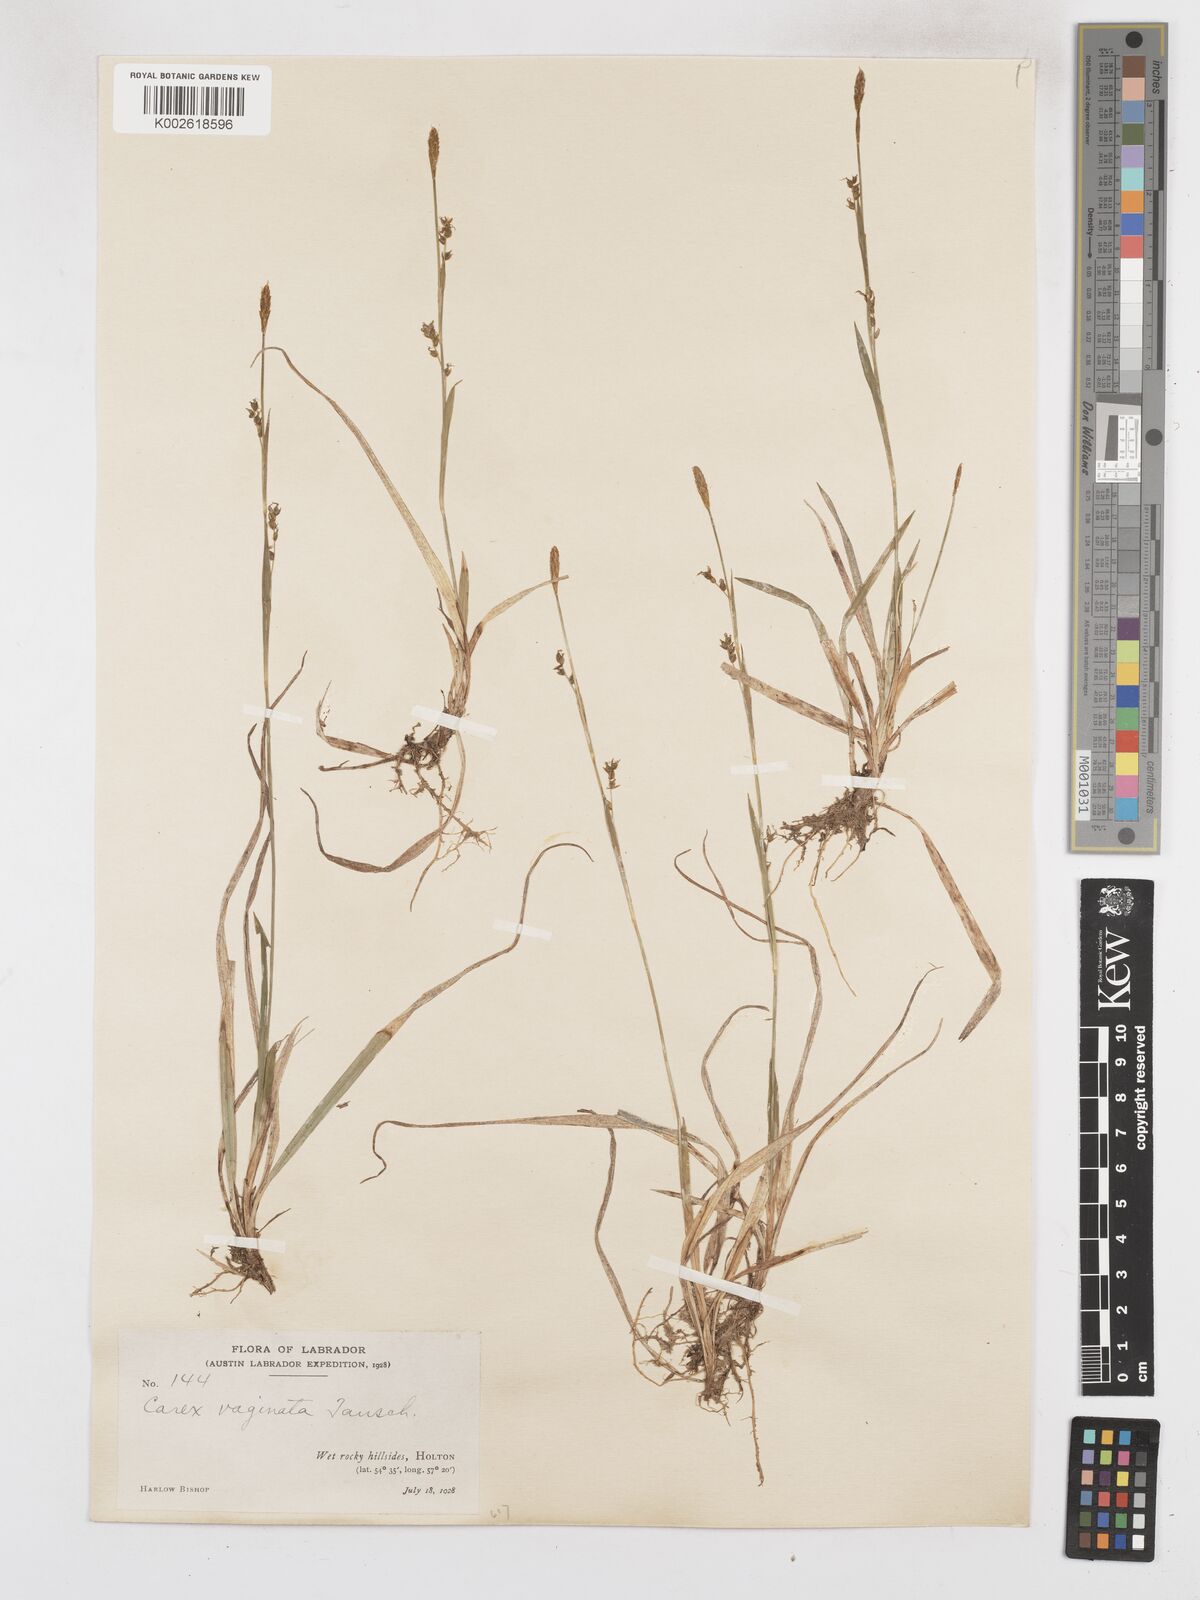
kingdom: Plantae
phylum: Tracheophyta
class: Liliopsida
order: Poales
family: Cyperaceae
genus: Carex
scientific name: Carex vaginata
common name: Sheathed sedge
